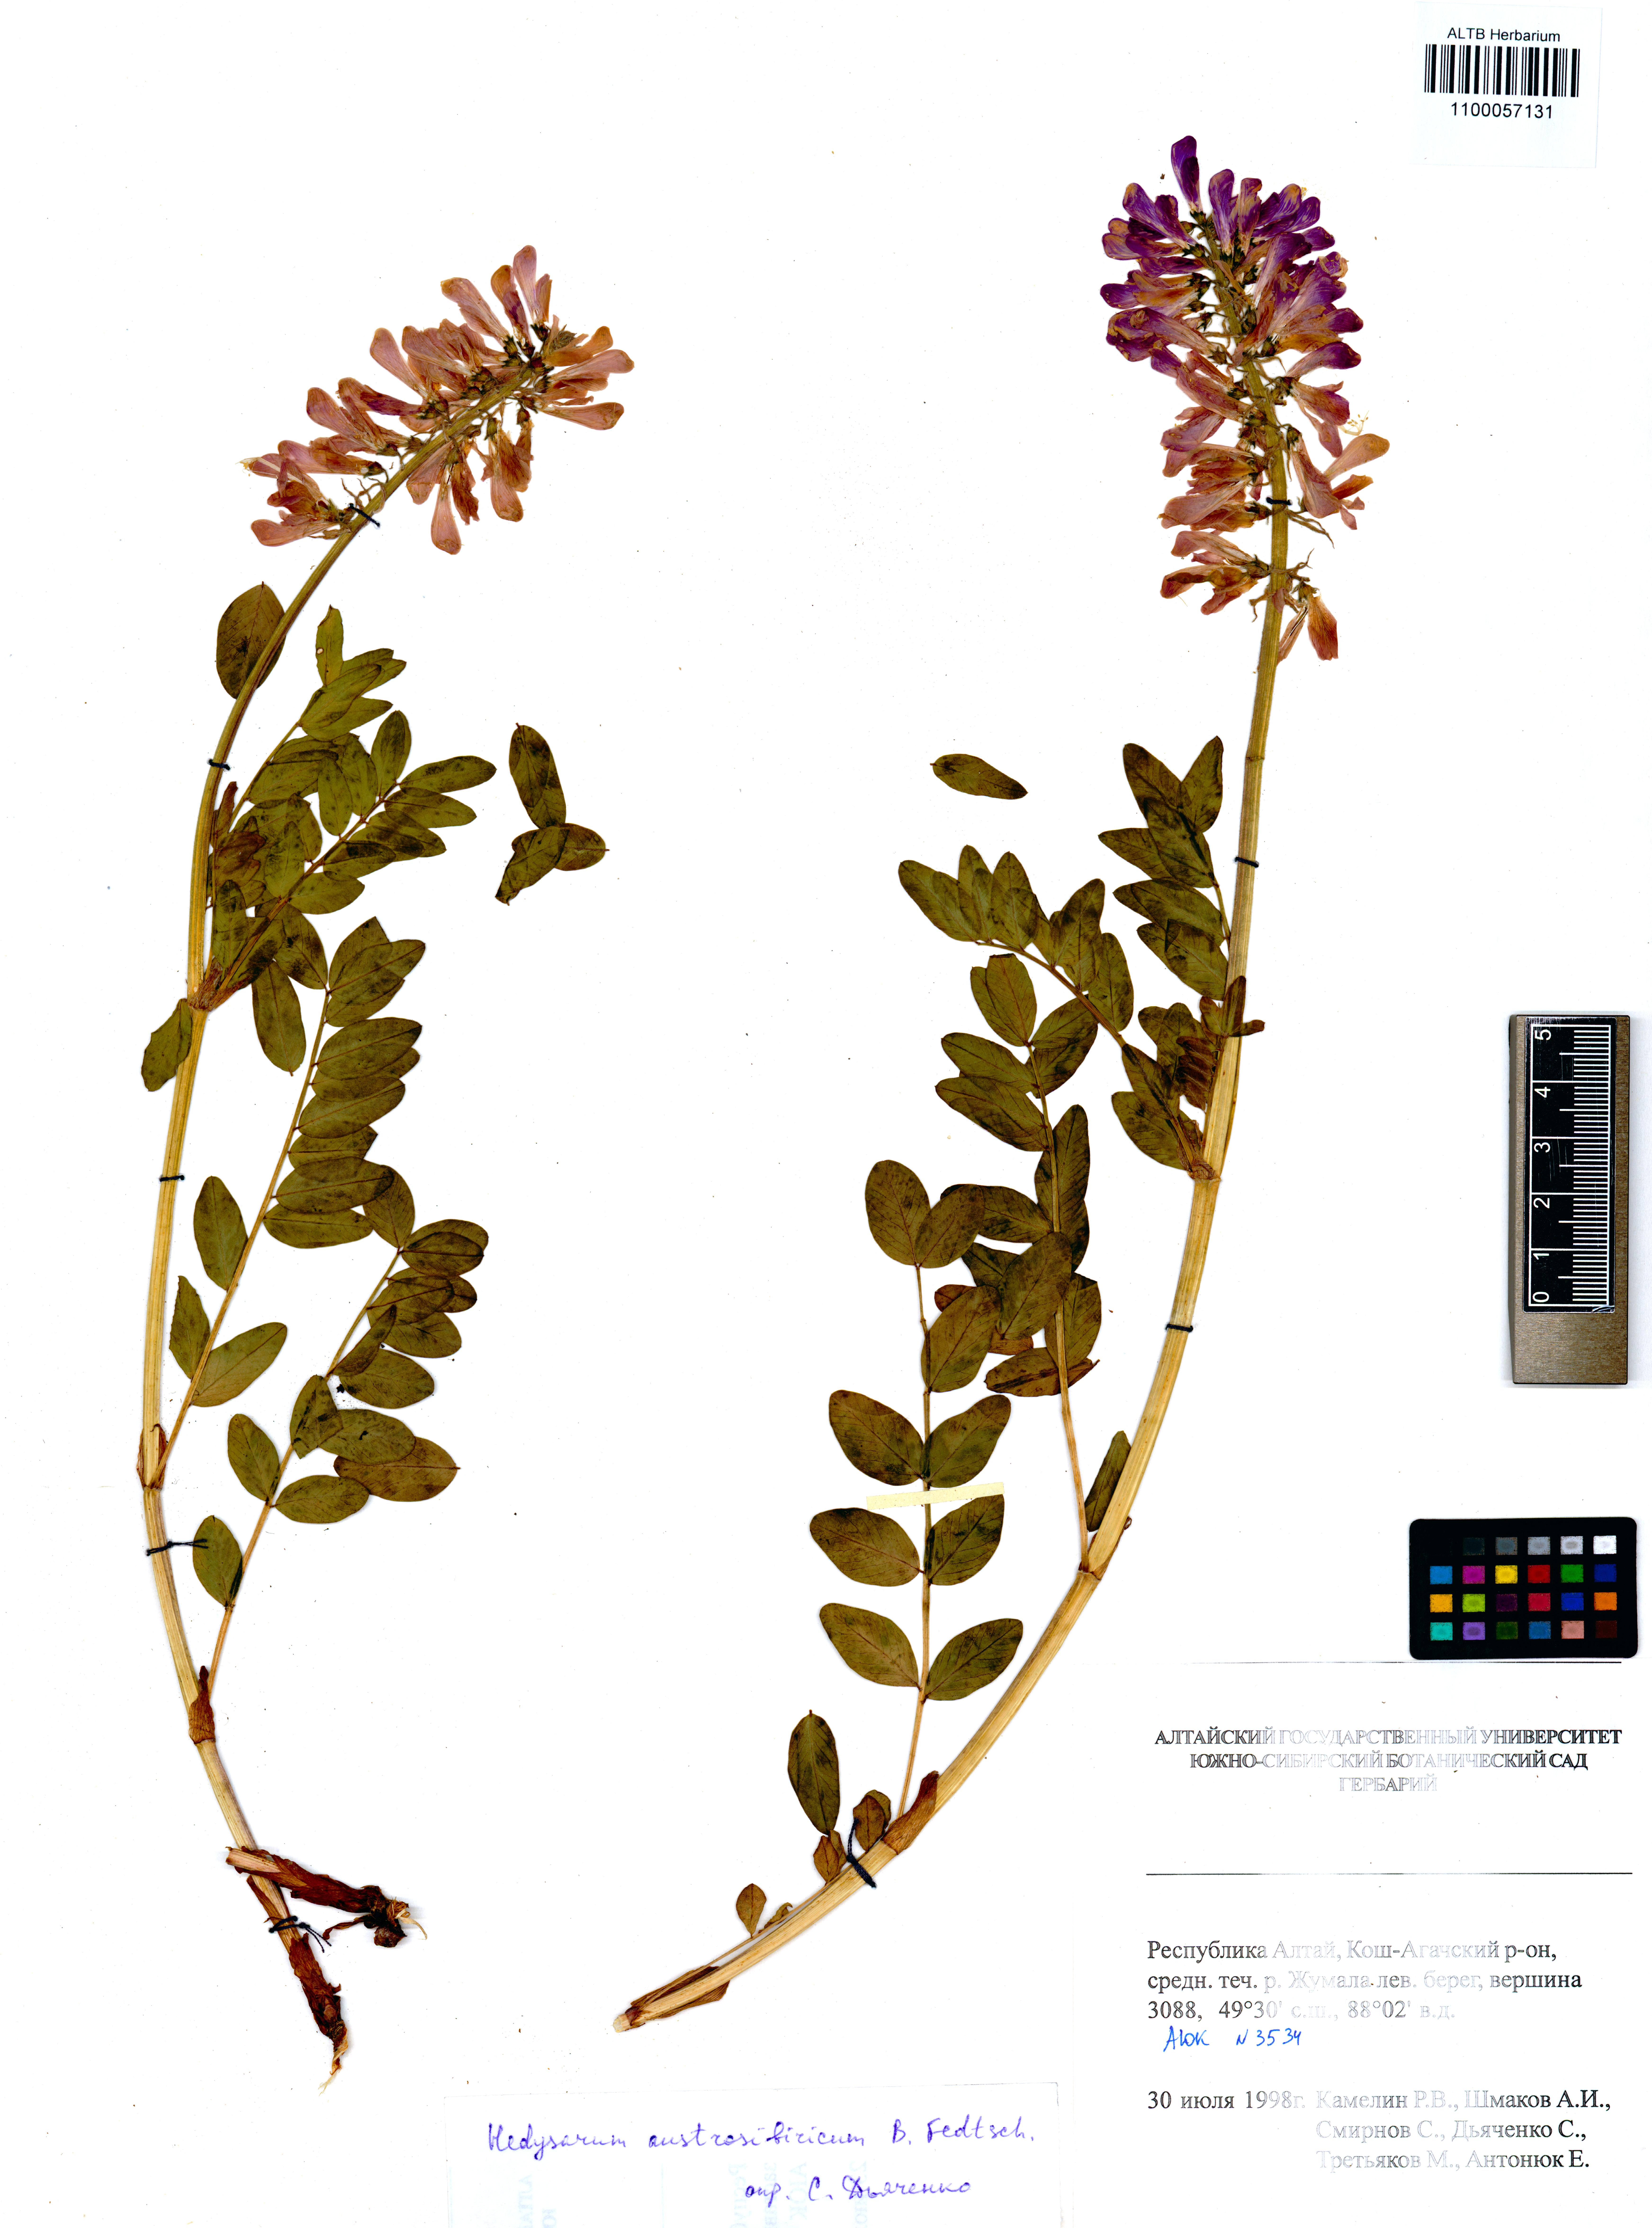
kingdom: Plantae
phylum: Tracheophyta
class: Magnoliopsida
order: Fabales
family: Fabaceae
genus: Hedysarum
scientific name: Hedysarum neglectum
